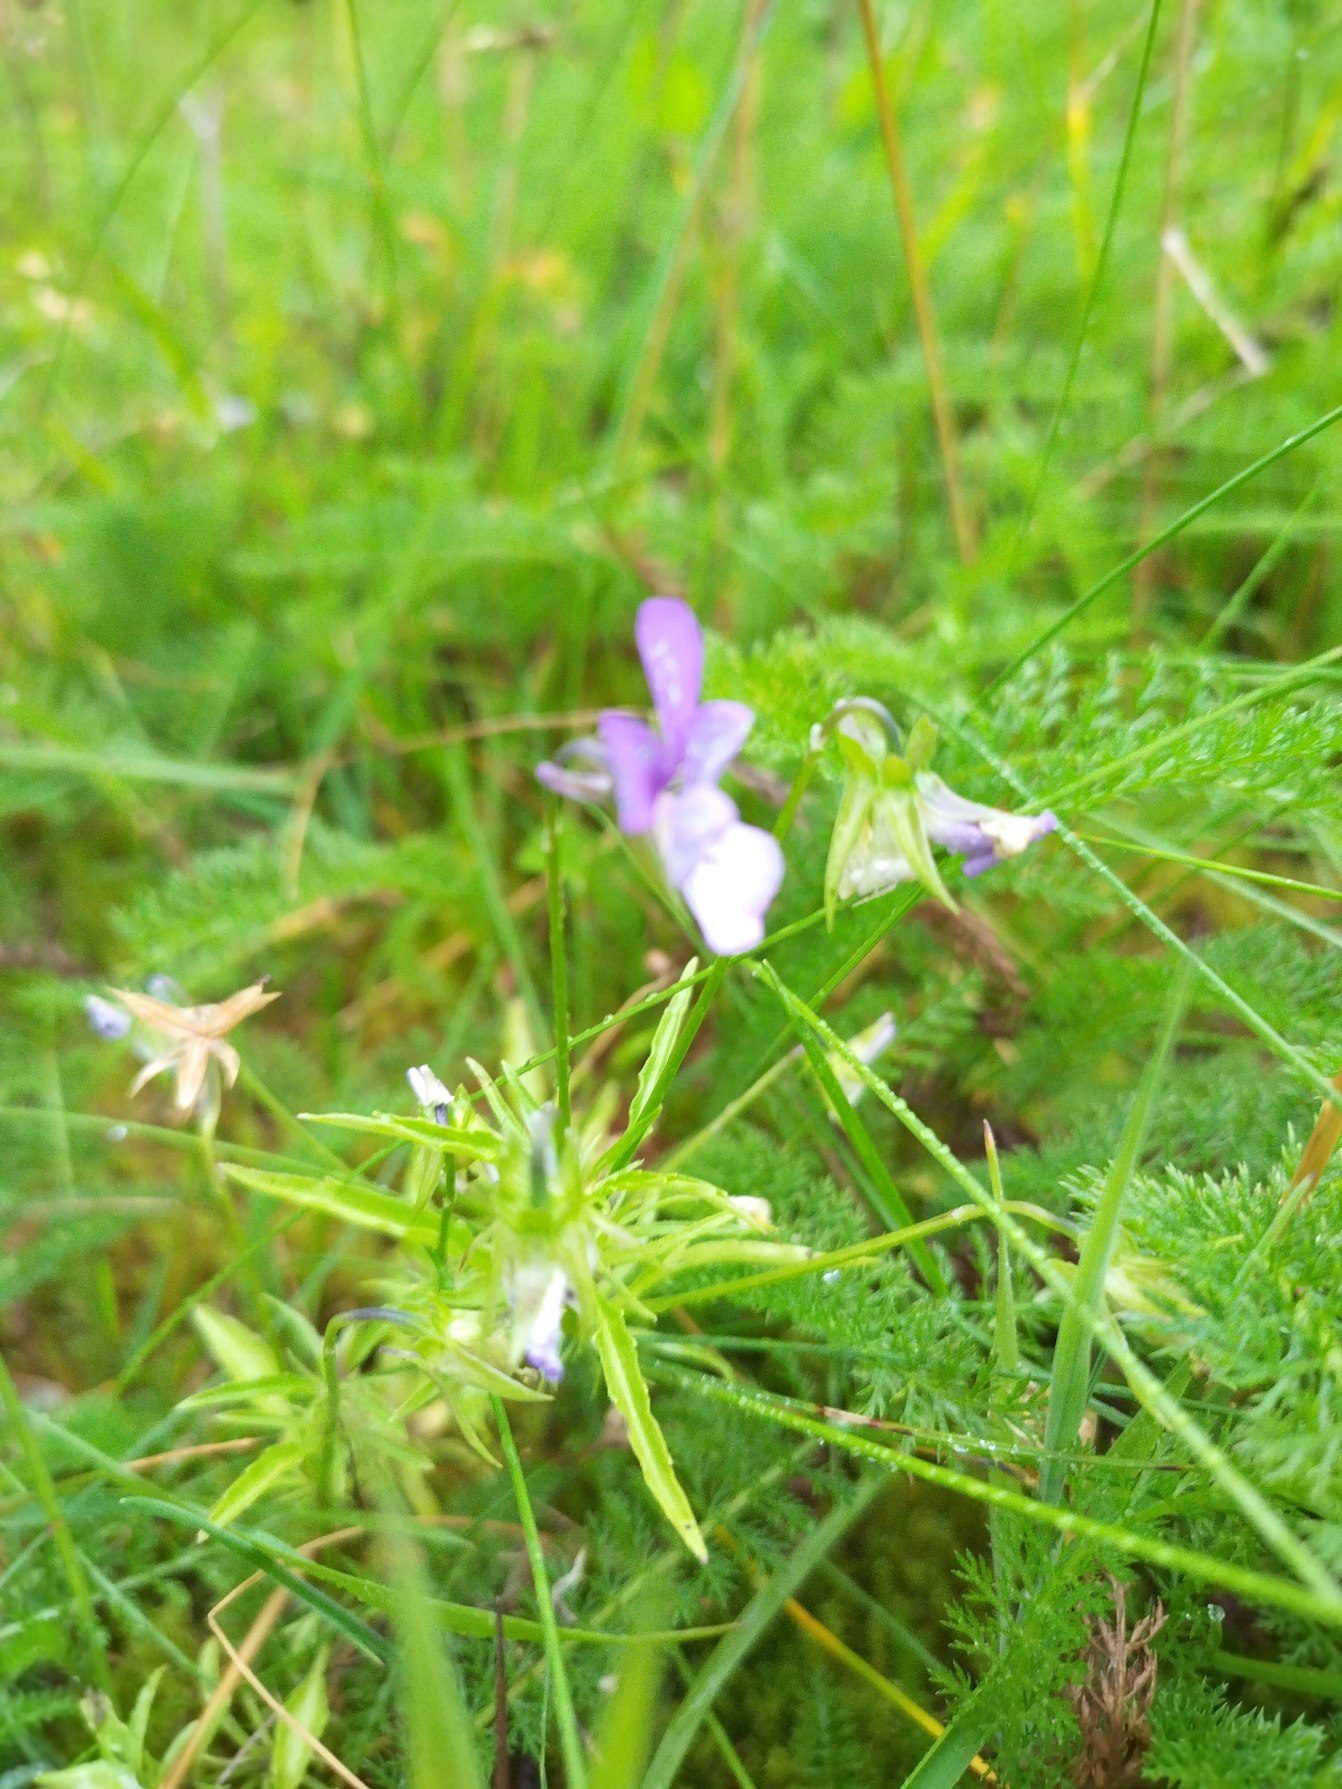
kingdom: Plantae
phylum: Tracheophyta
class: Magnoliopsida
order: Malpighiales
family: Violaceae
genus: Viola
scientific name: Viola tricolor
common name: Stedmoderblomst
